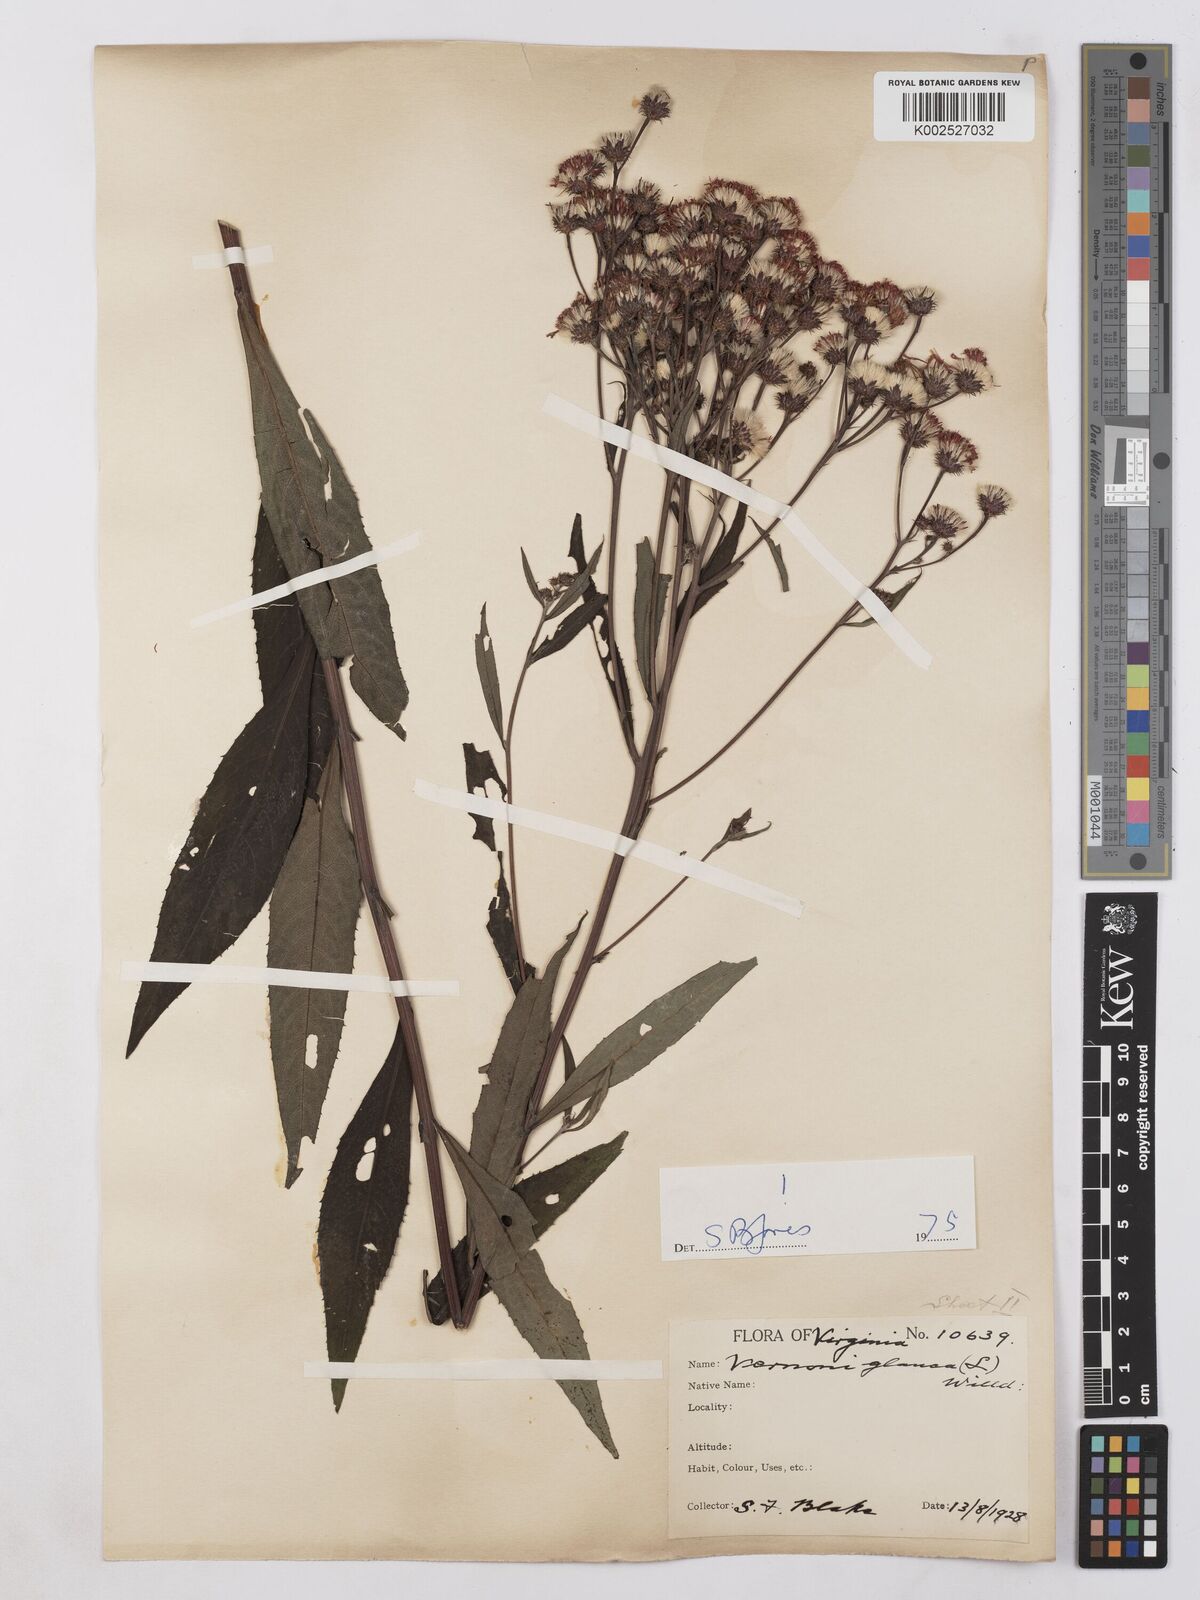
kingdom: Plantae
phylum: Tracheophyta
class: Magnoliopsida
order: Asterales
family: Asteraceae
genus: Vernonia
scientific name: Vernonia glauca
